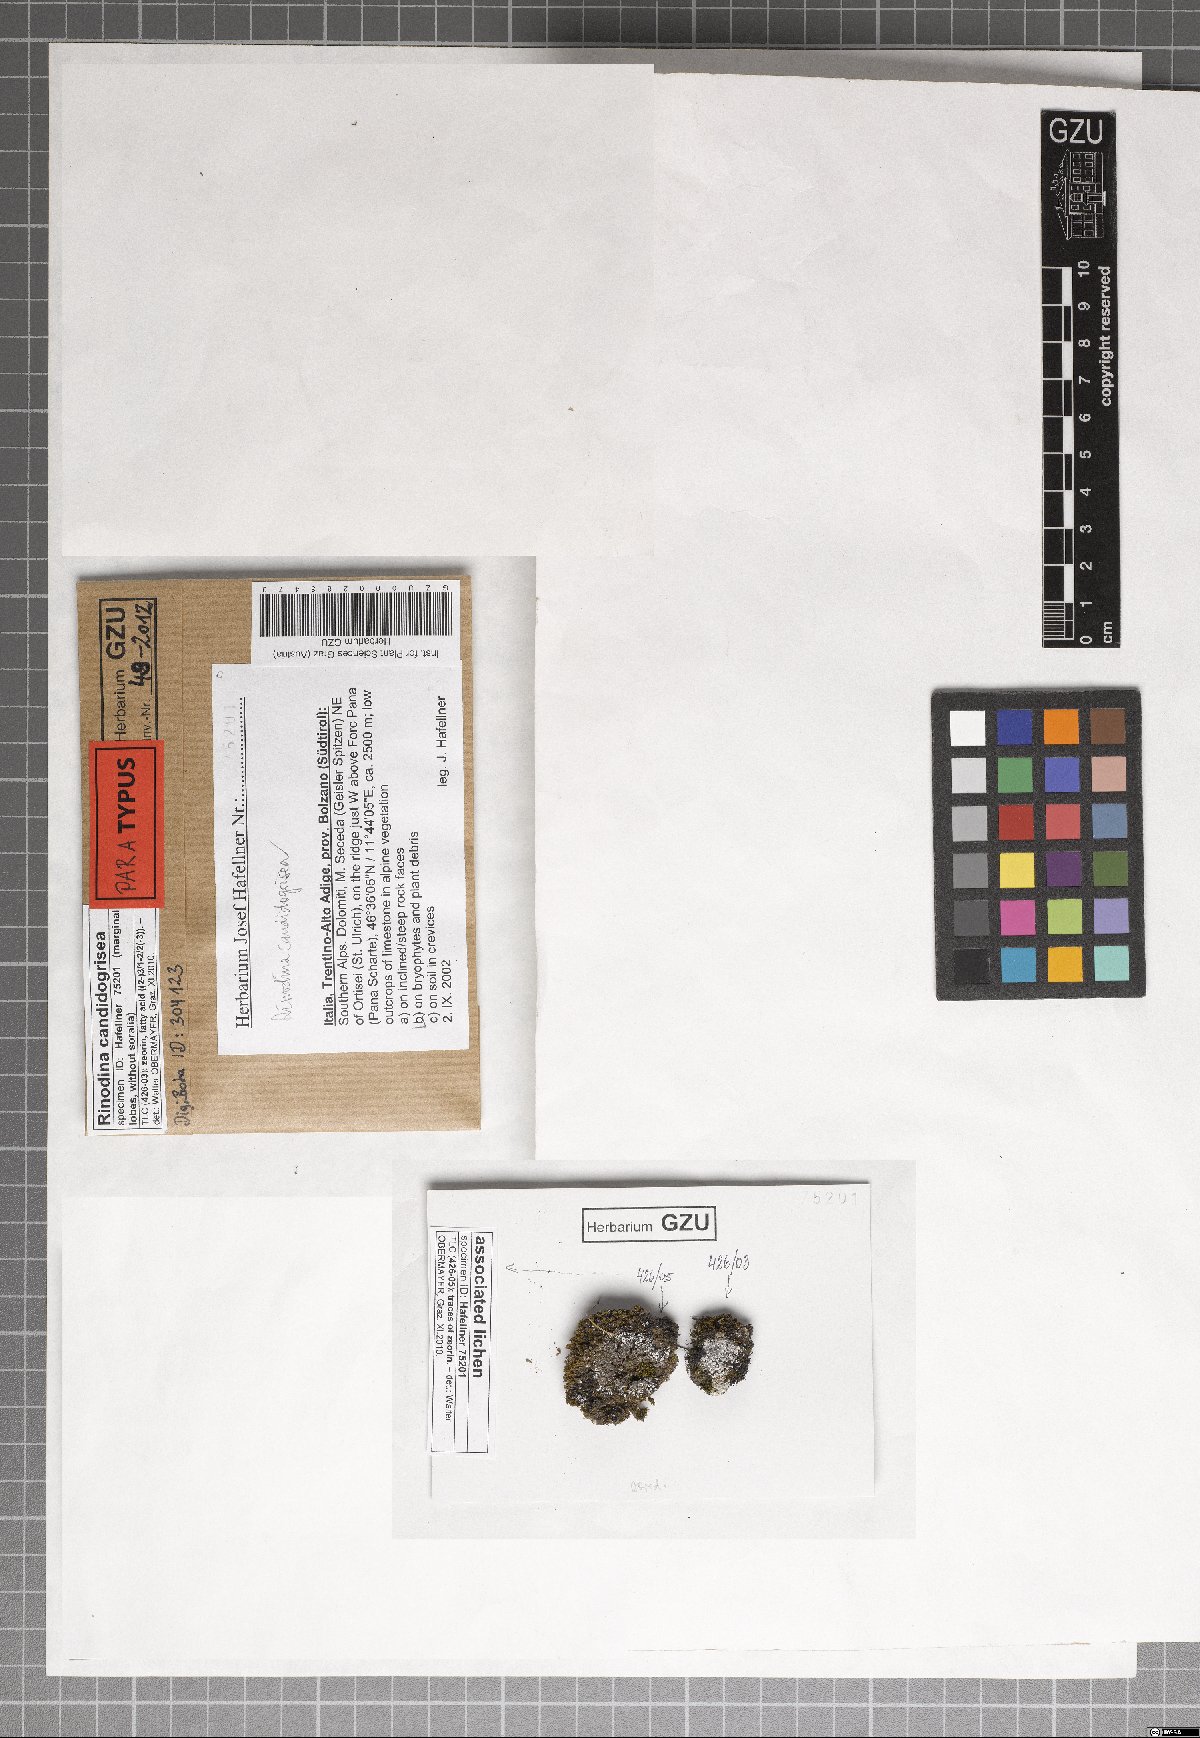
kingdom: Fungi
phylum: Ascomycota
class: Lecanoromycetes
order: Caliciales
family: Physciaceae
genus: Kudratovia
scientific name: Kudratovia candidogrisea
